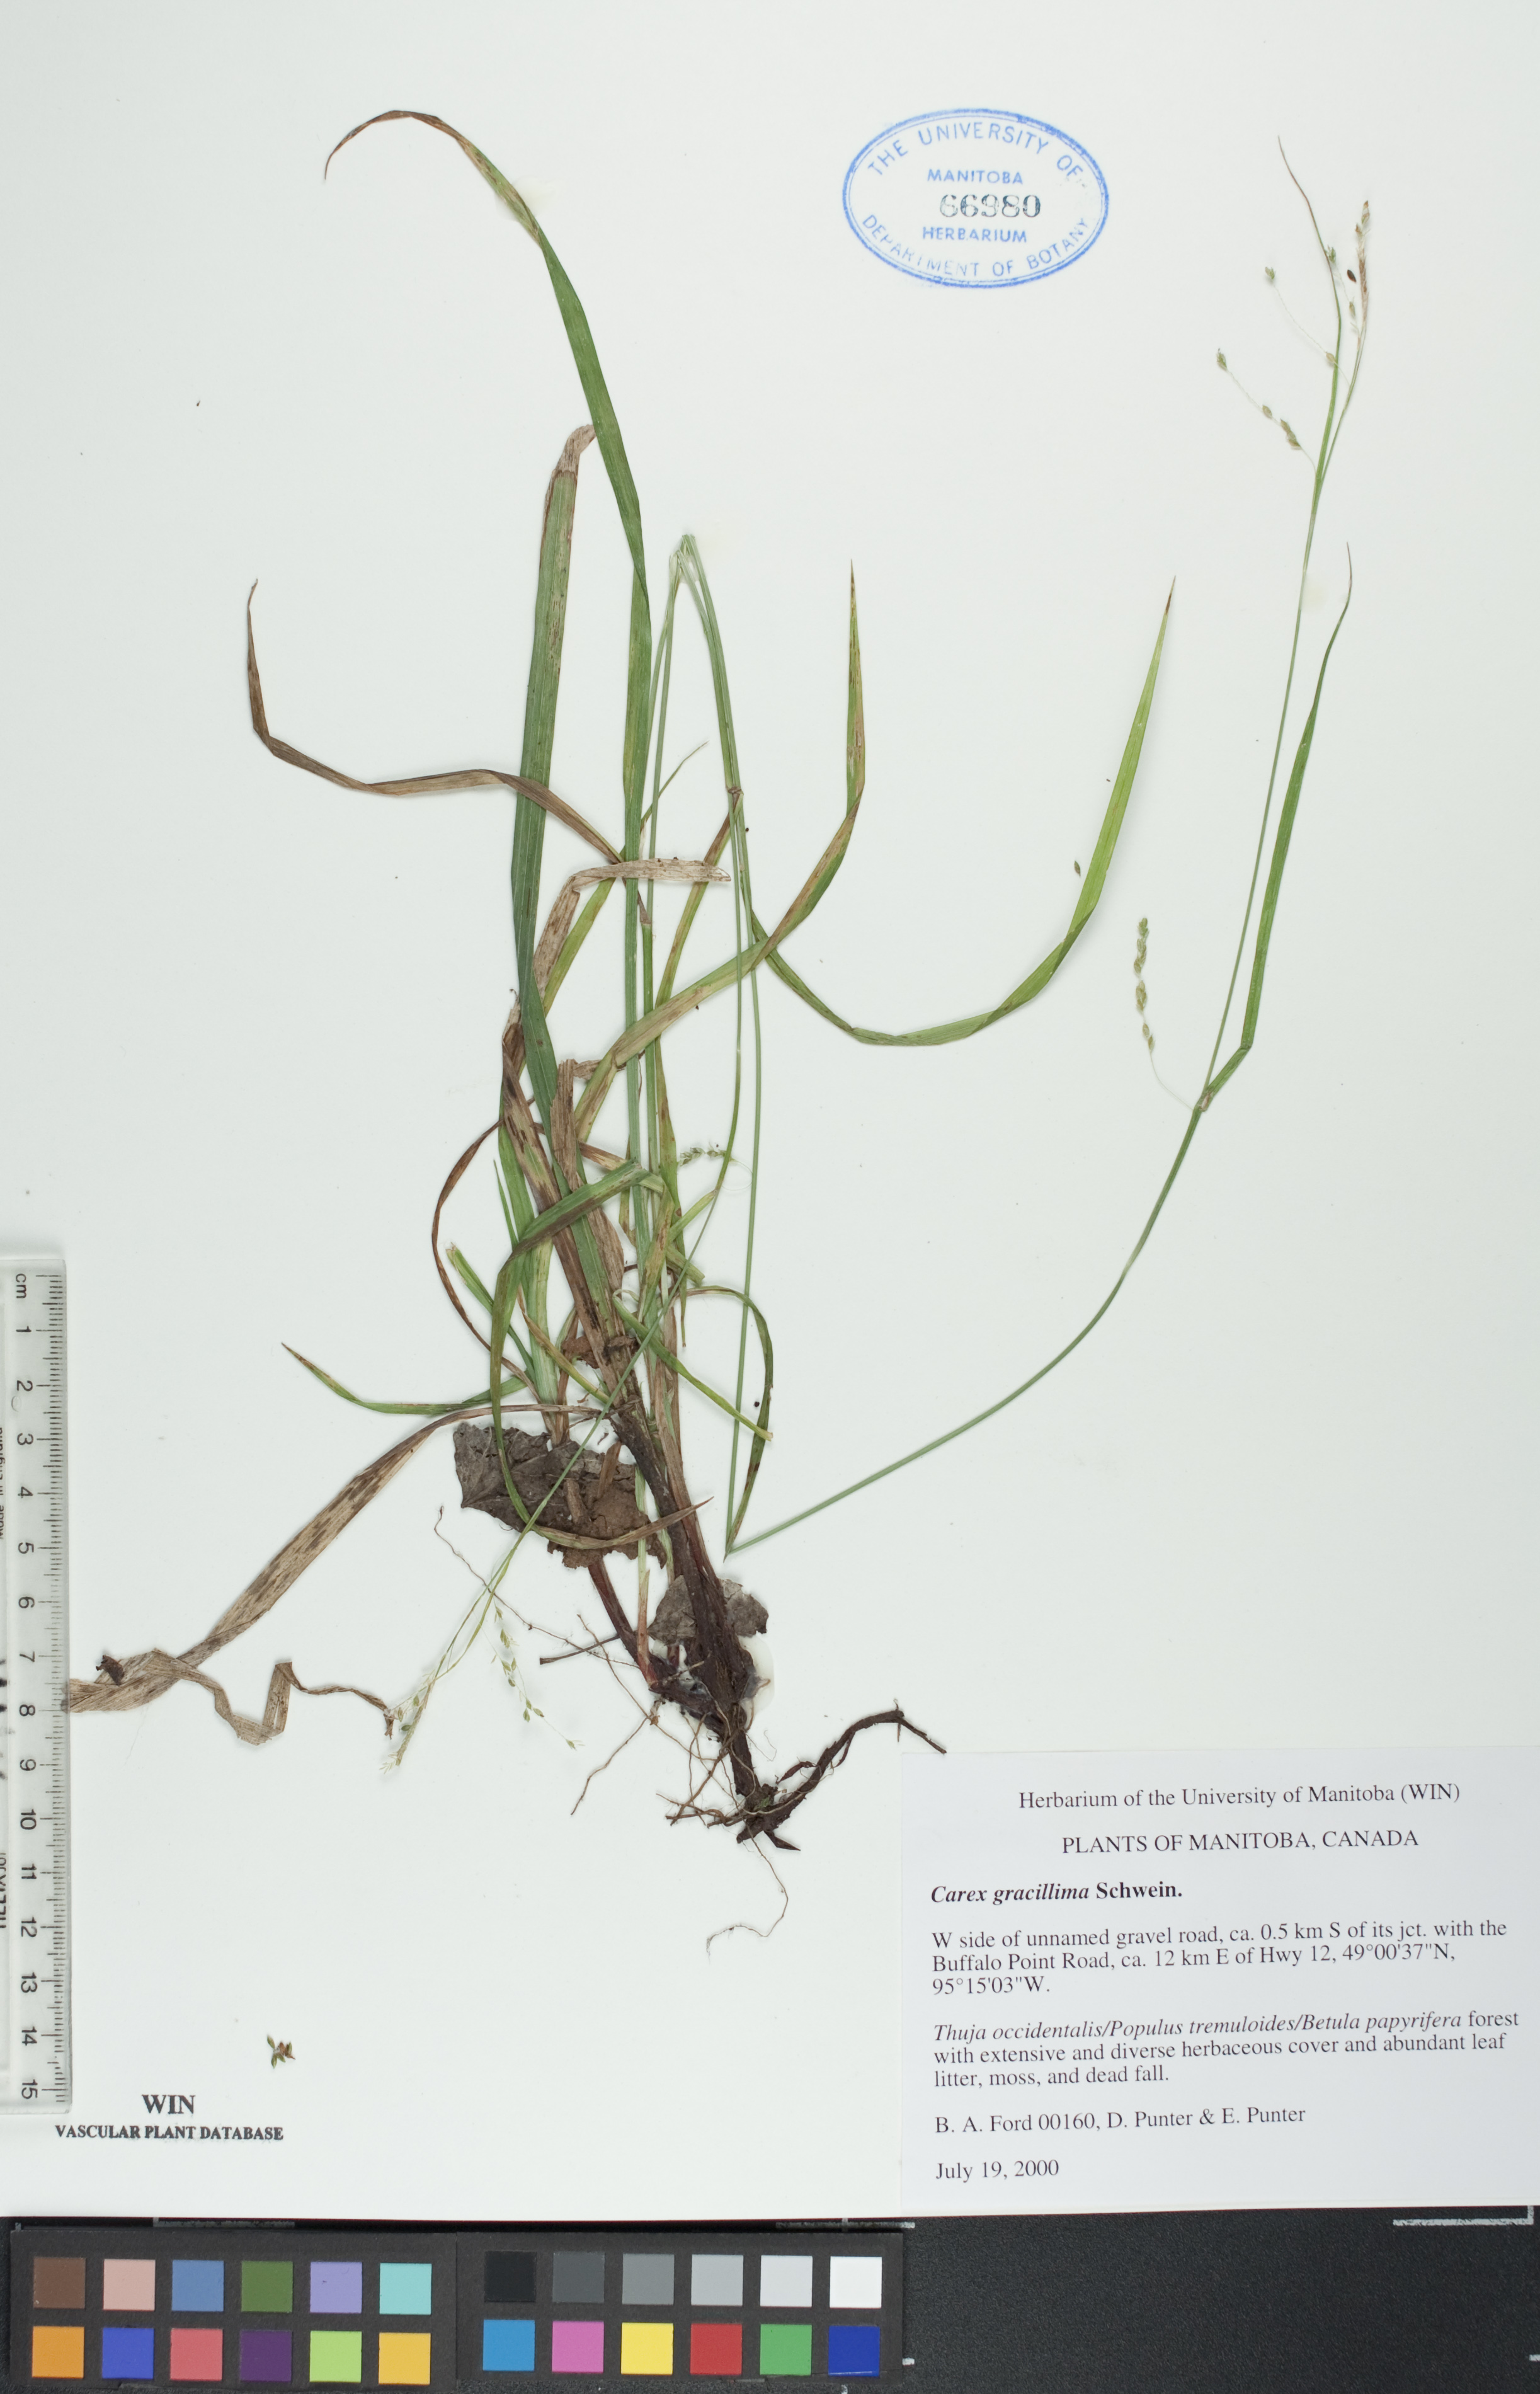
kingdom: Plantae
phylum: Tracheophyta
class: Liliopsida
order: Poales
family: Cyperaceae
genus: Carex
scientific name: Carex gracillima
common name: Graceful sedge
